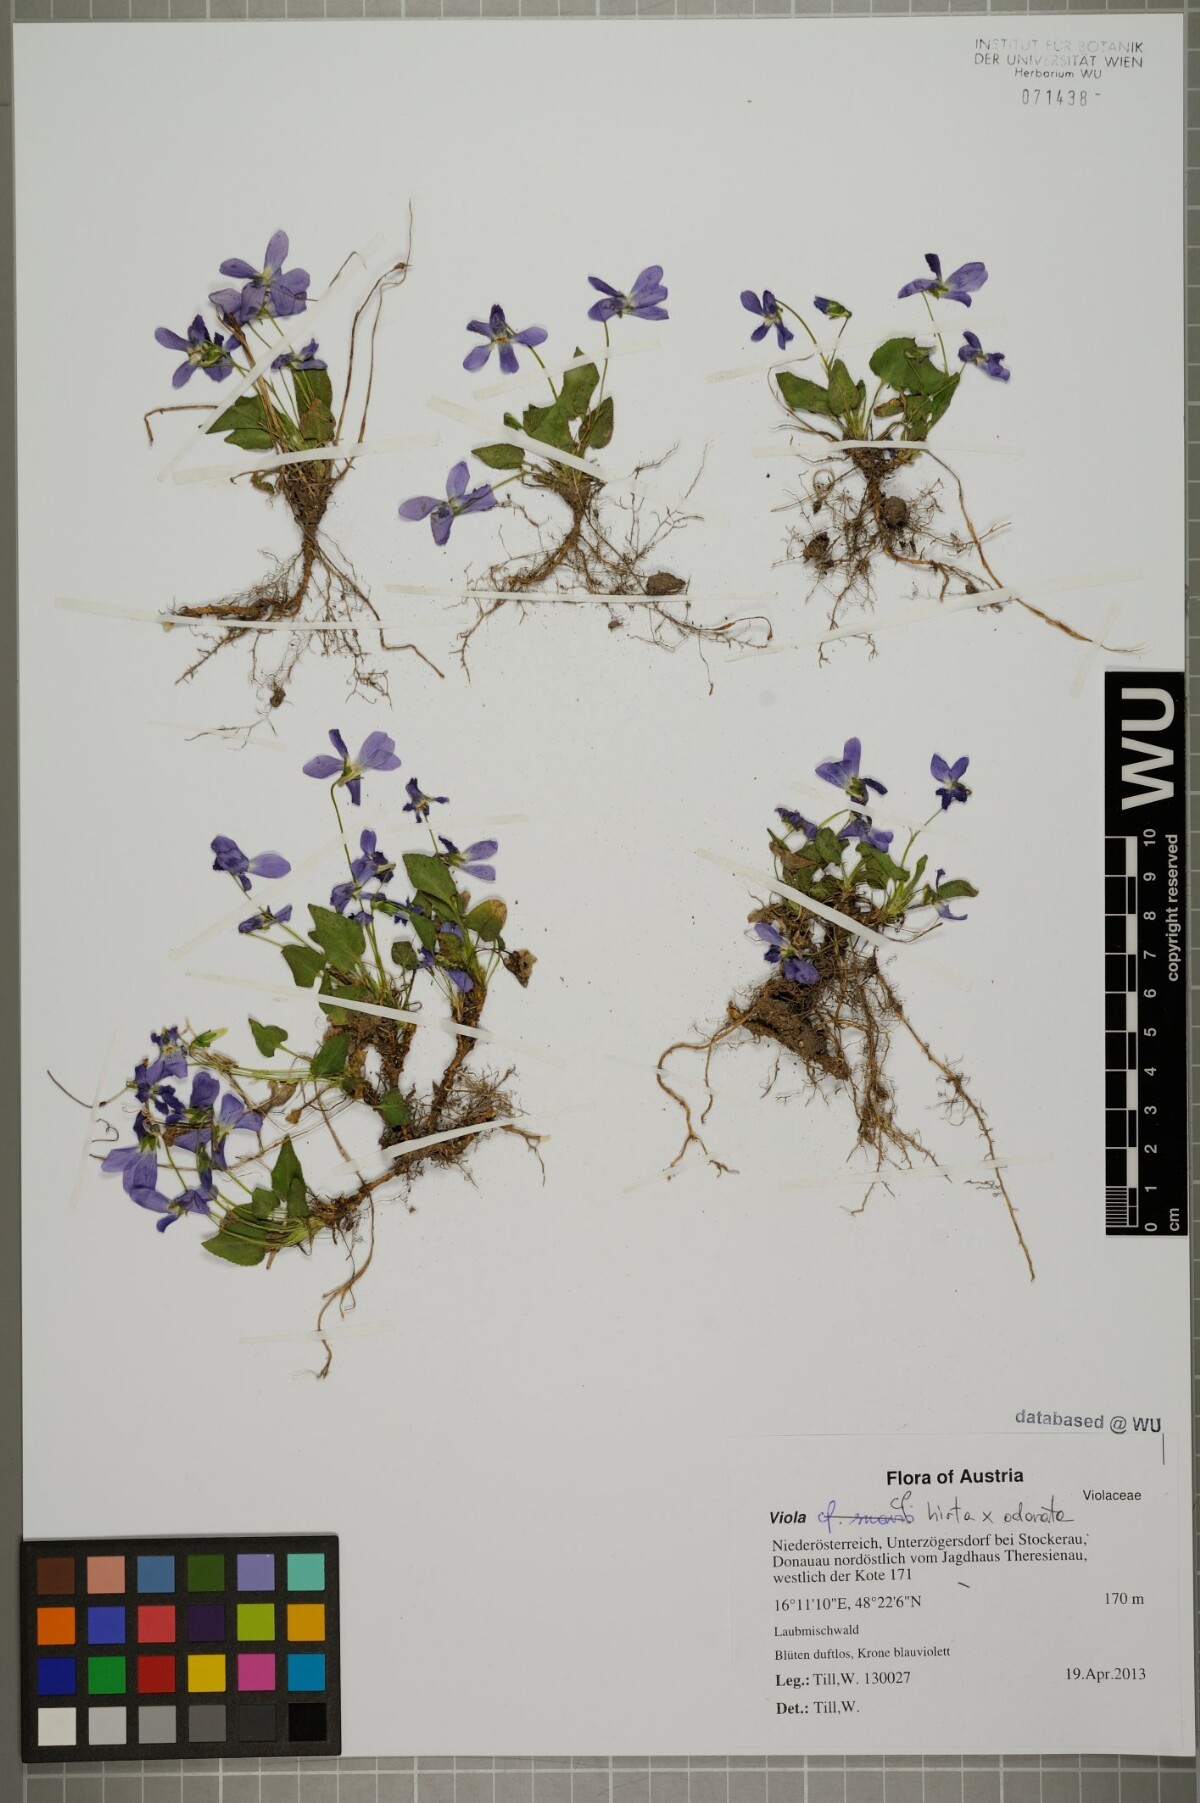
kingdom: Plantae
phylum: Tracheophyta
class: Magnoliopsida
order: Malpighiales
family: Violaceae
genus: Viola
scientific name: Viola
